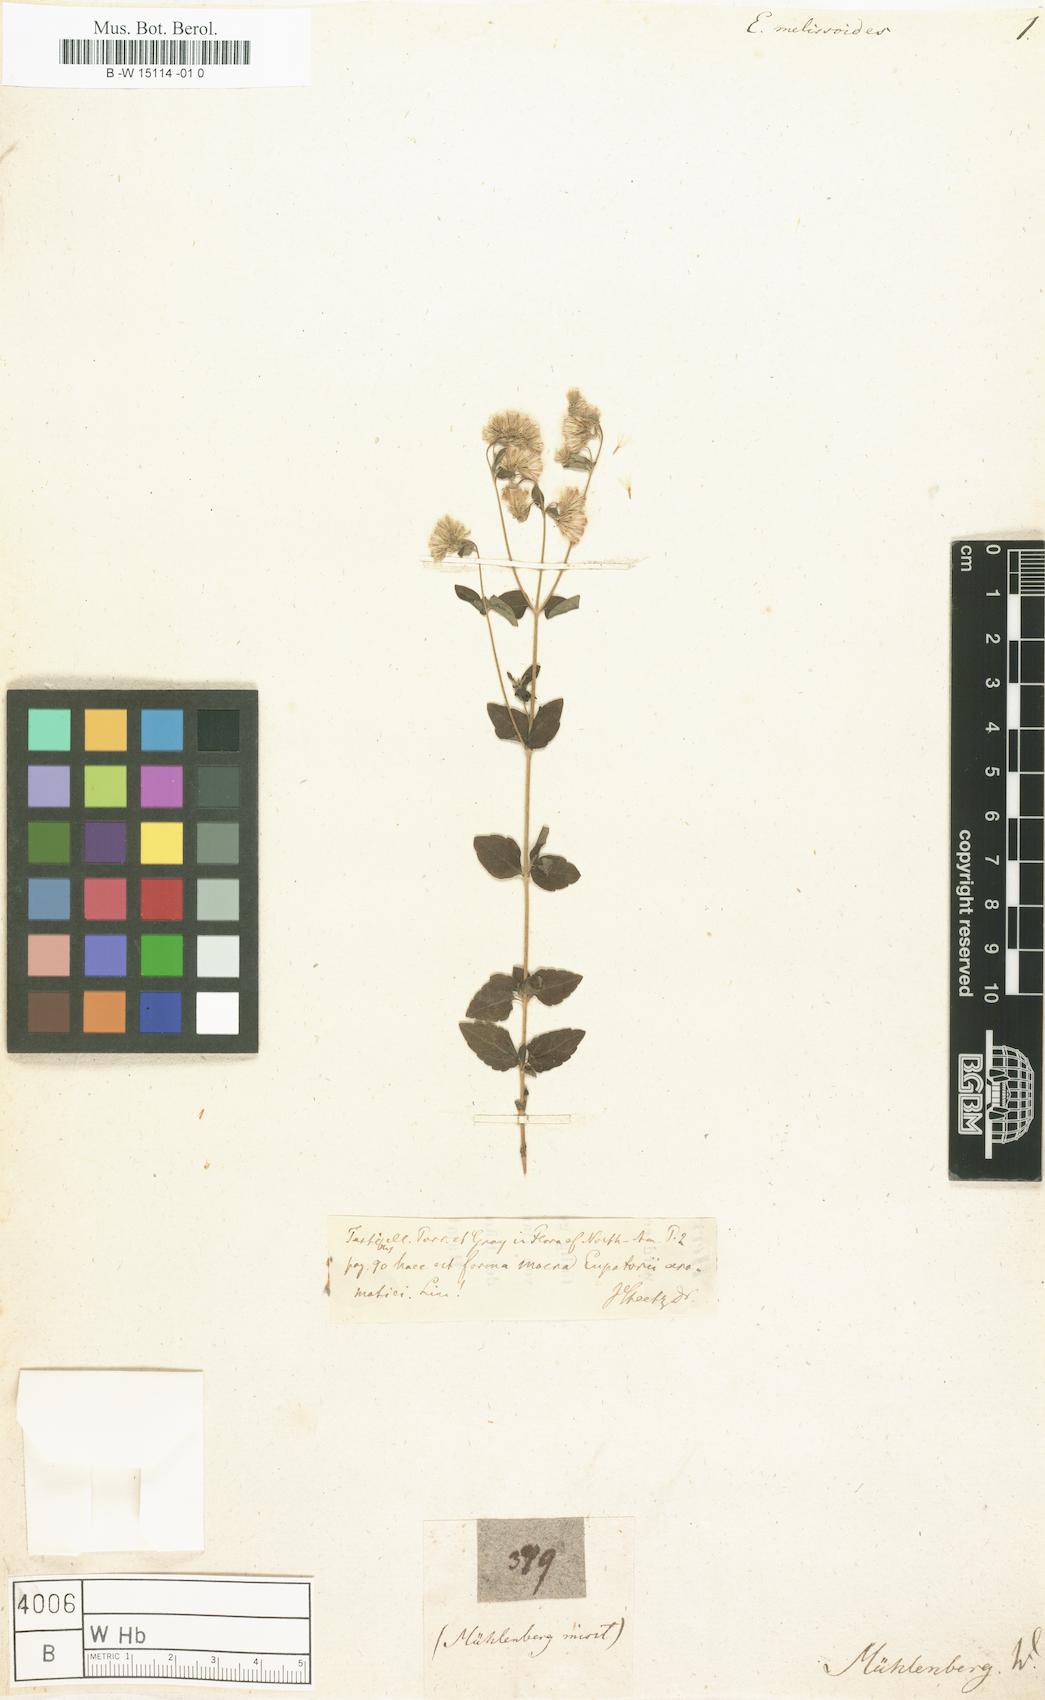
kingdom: Plantae
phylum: Tracheophyta
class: Magnoliopsida
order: Asterales
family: Asteraceae
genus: Ageratina
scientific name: Ageratina aromatica
